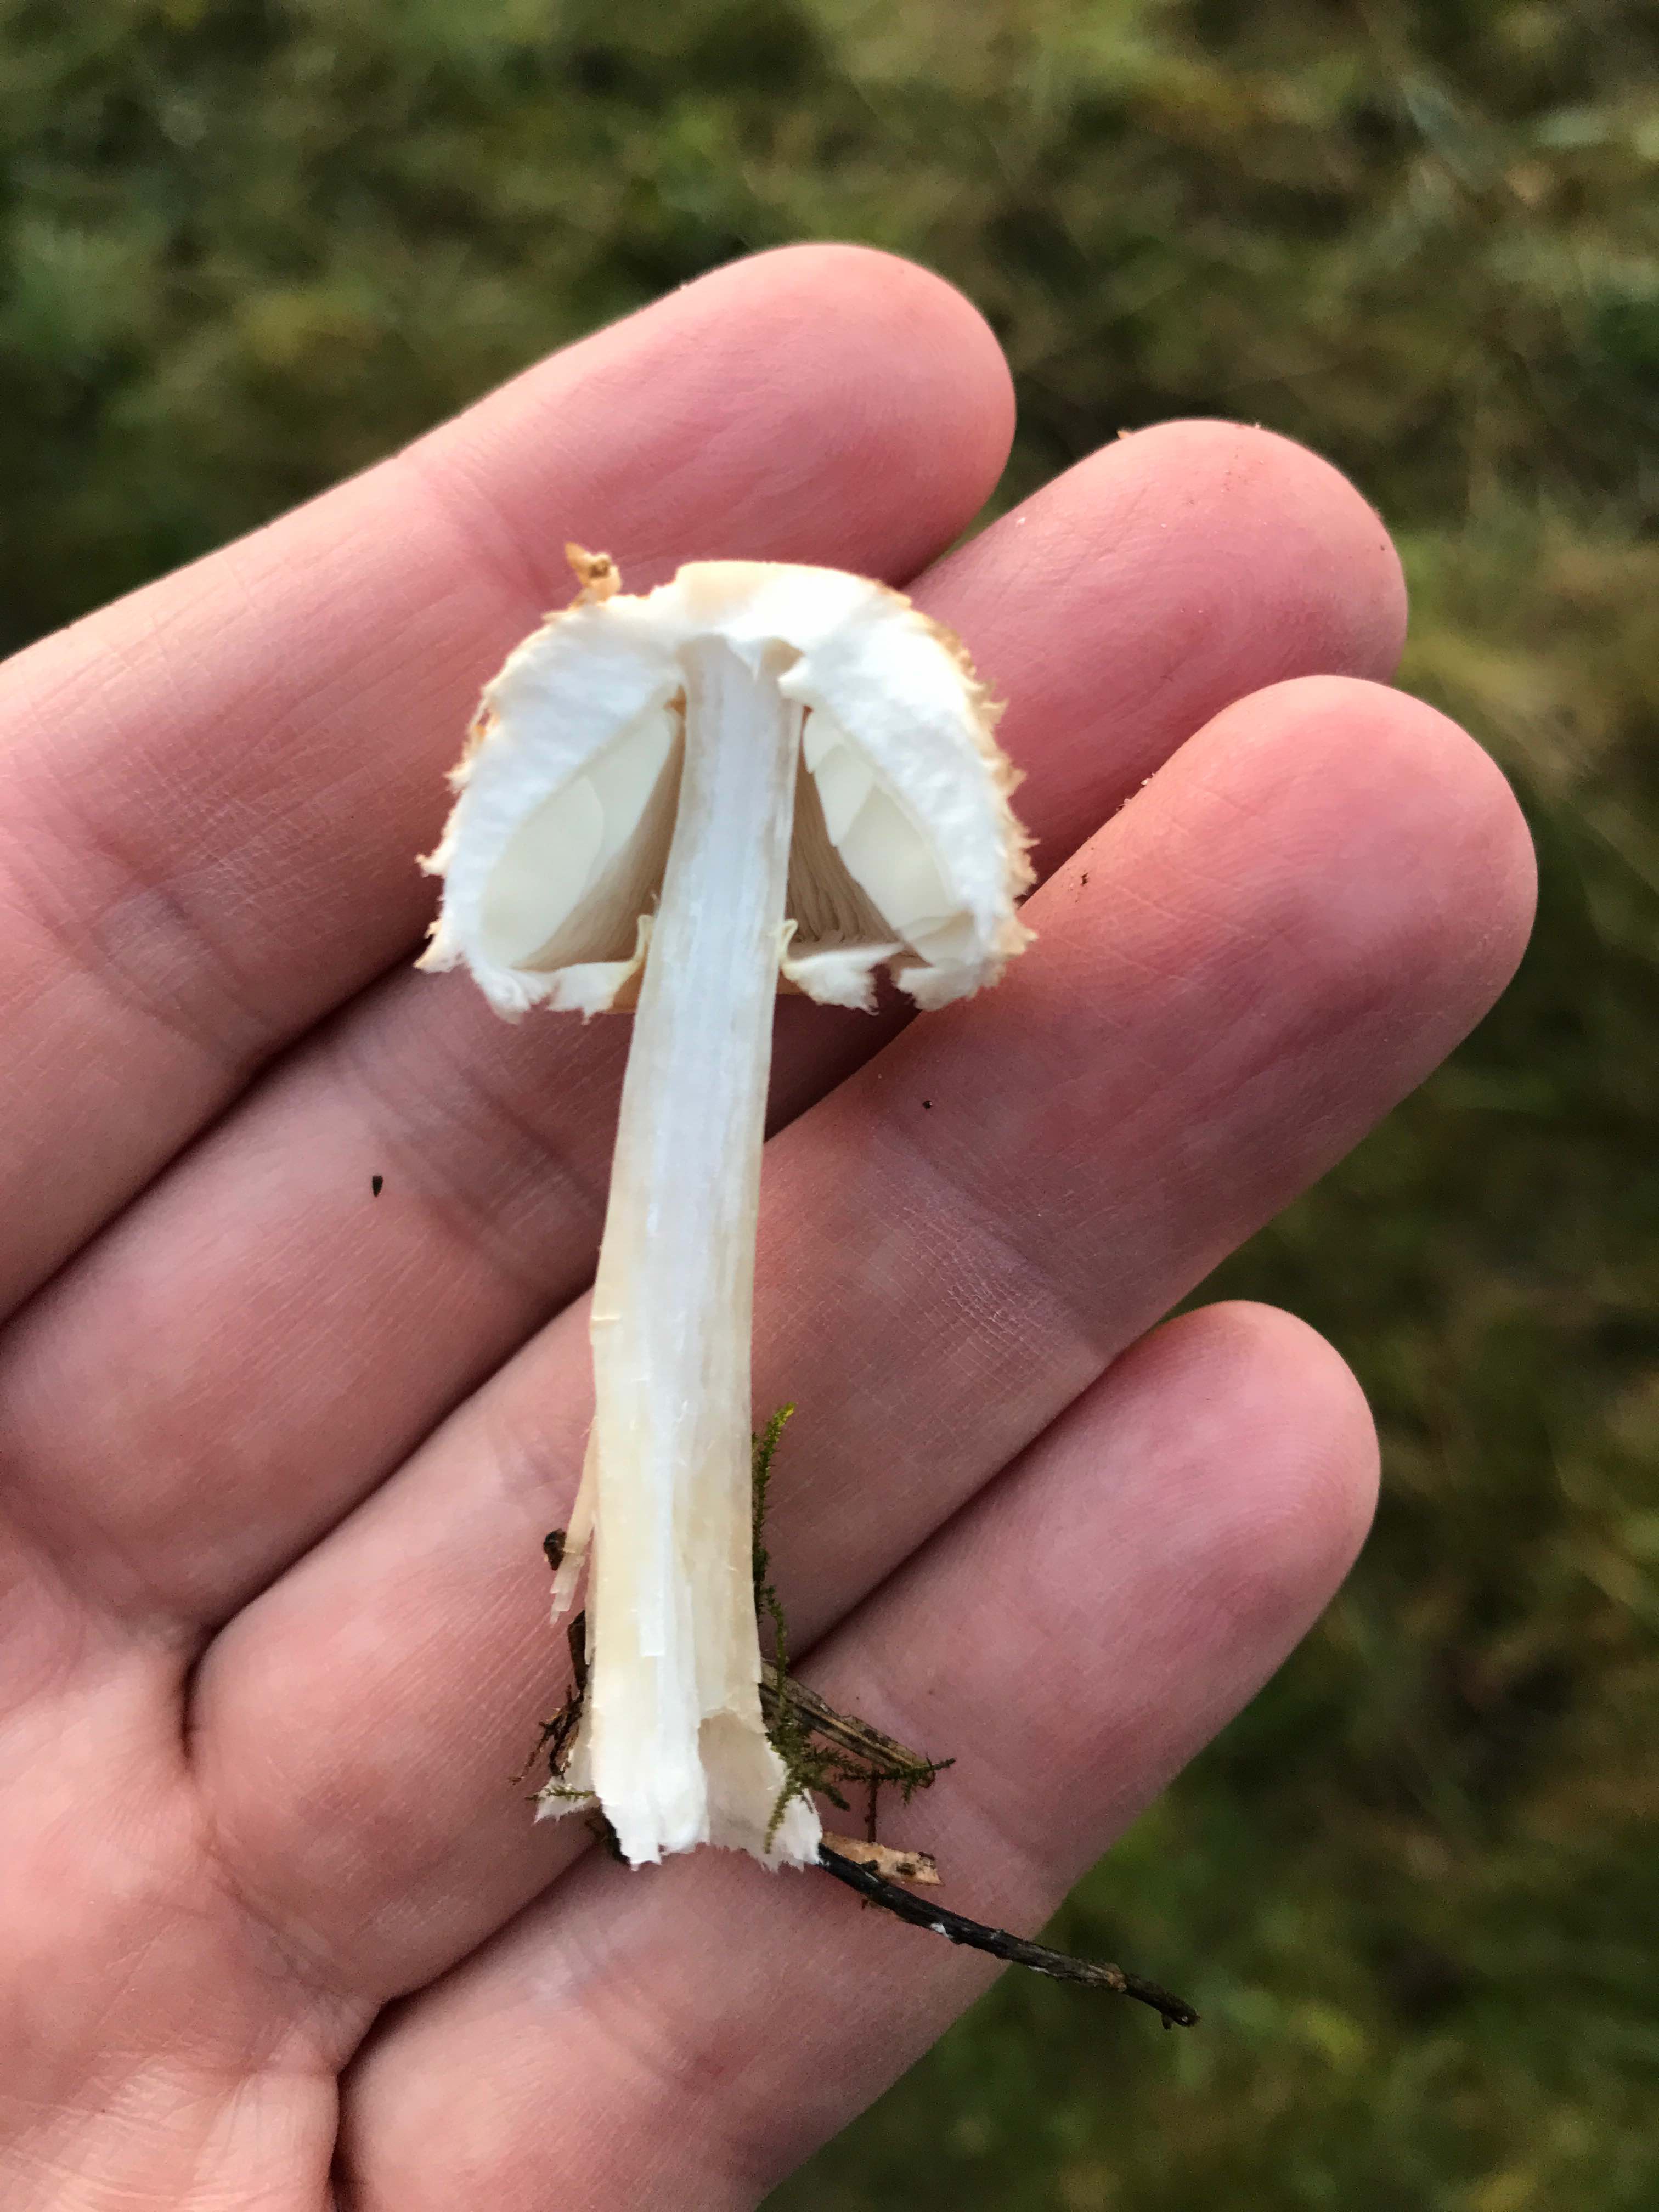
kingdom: Fungi
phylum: Basidiomycota
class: Agaricomycetes
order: Agaricales
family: Agaricaceae
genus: Leucoagaricus
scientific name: Leucoagaricus nympharum
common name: gran-silkehat
